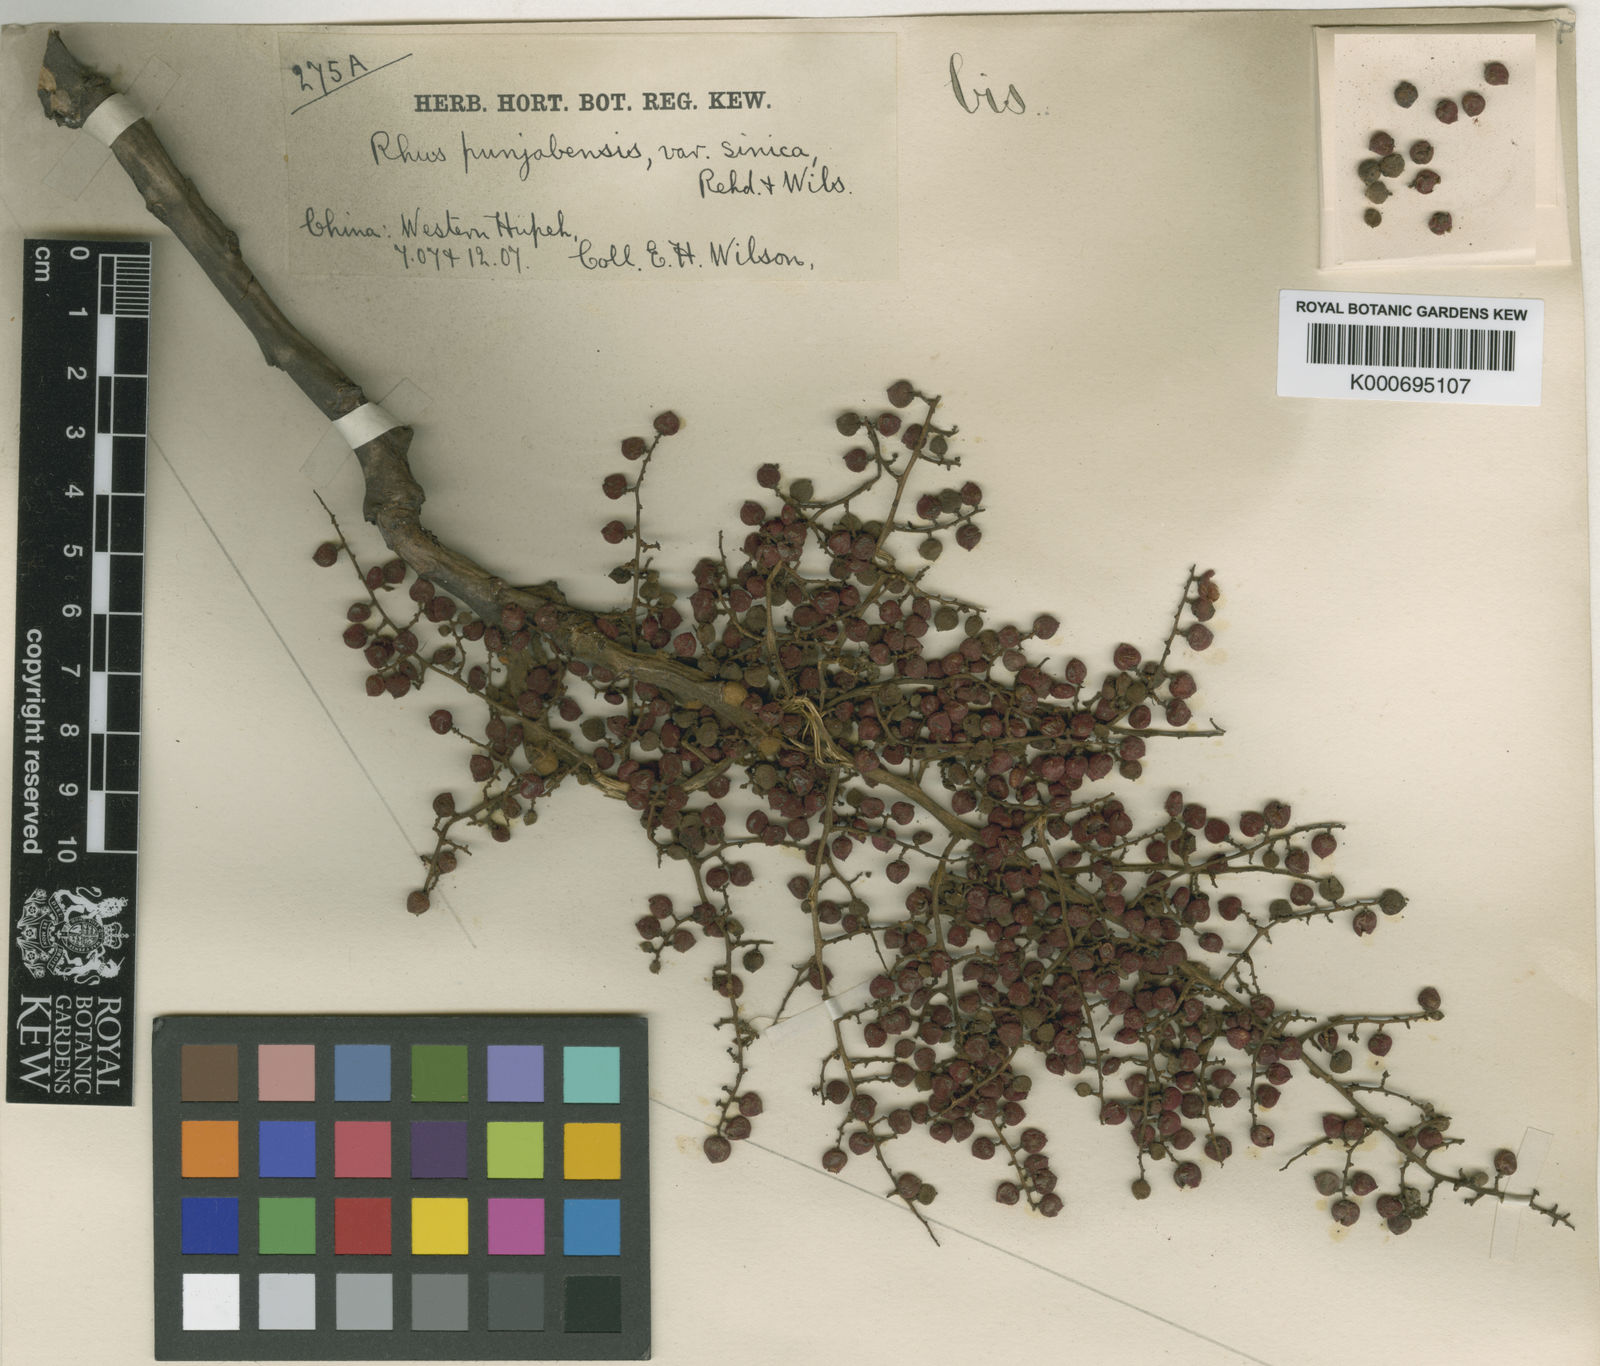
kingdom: Plantae
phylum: Tracheophyta
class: Magnoliopsida
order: Sapindales
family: Anacardiaceae
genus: Rhus
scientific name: Rhus punjabensis
